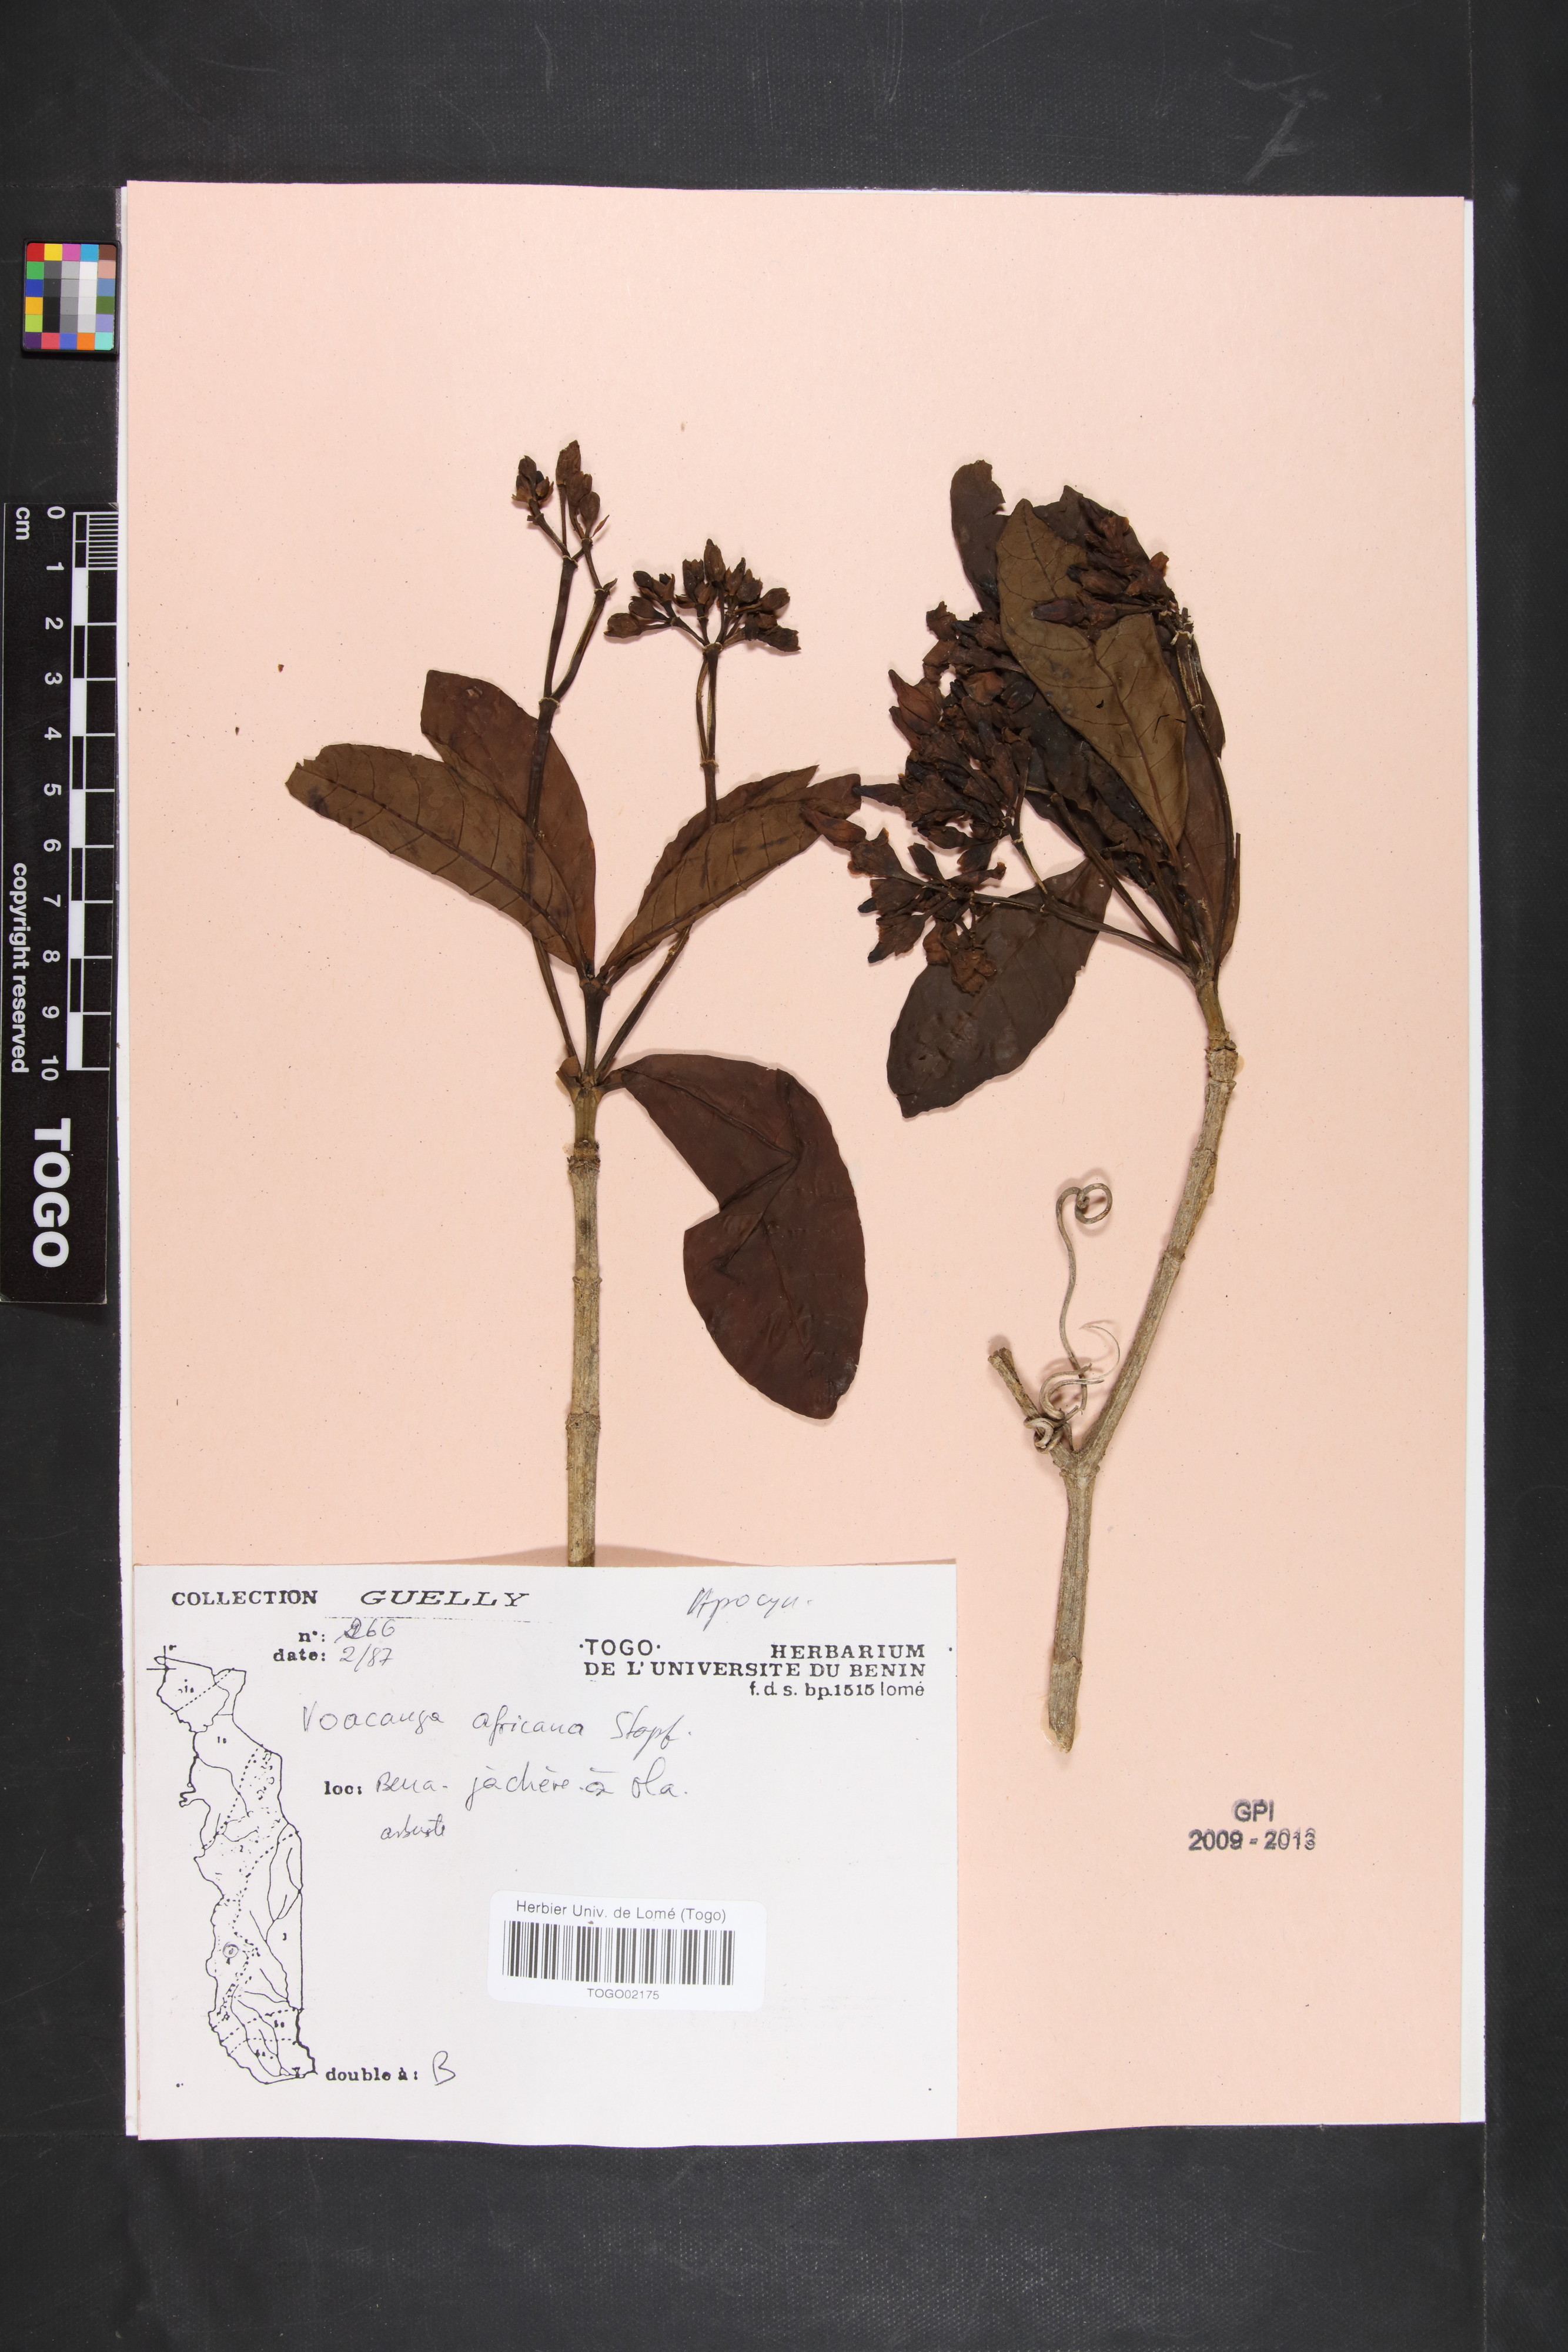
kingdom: Plantae
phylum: Tracheophyta
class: Magnoliopsida
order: Gentianales
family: Apocynaceae
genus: Voacanga
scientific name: Voacanga africana
